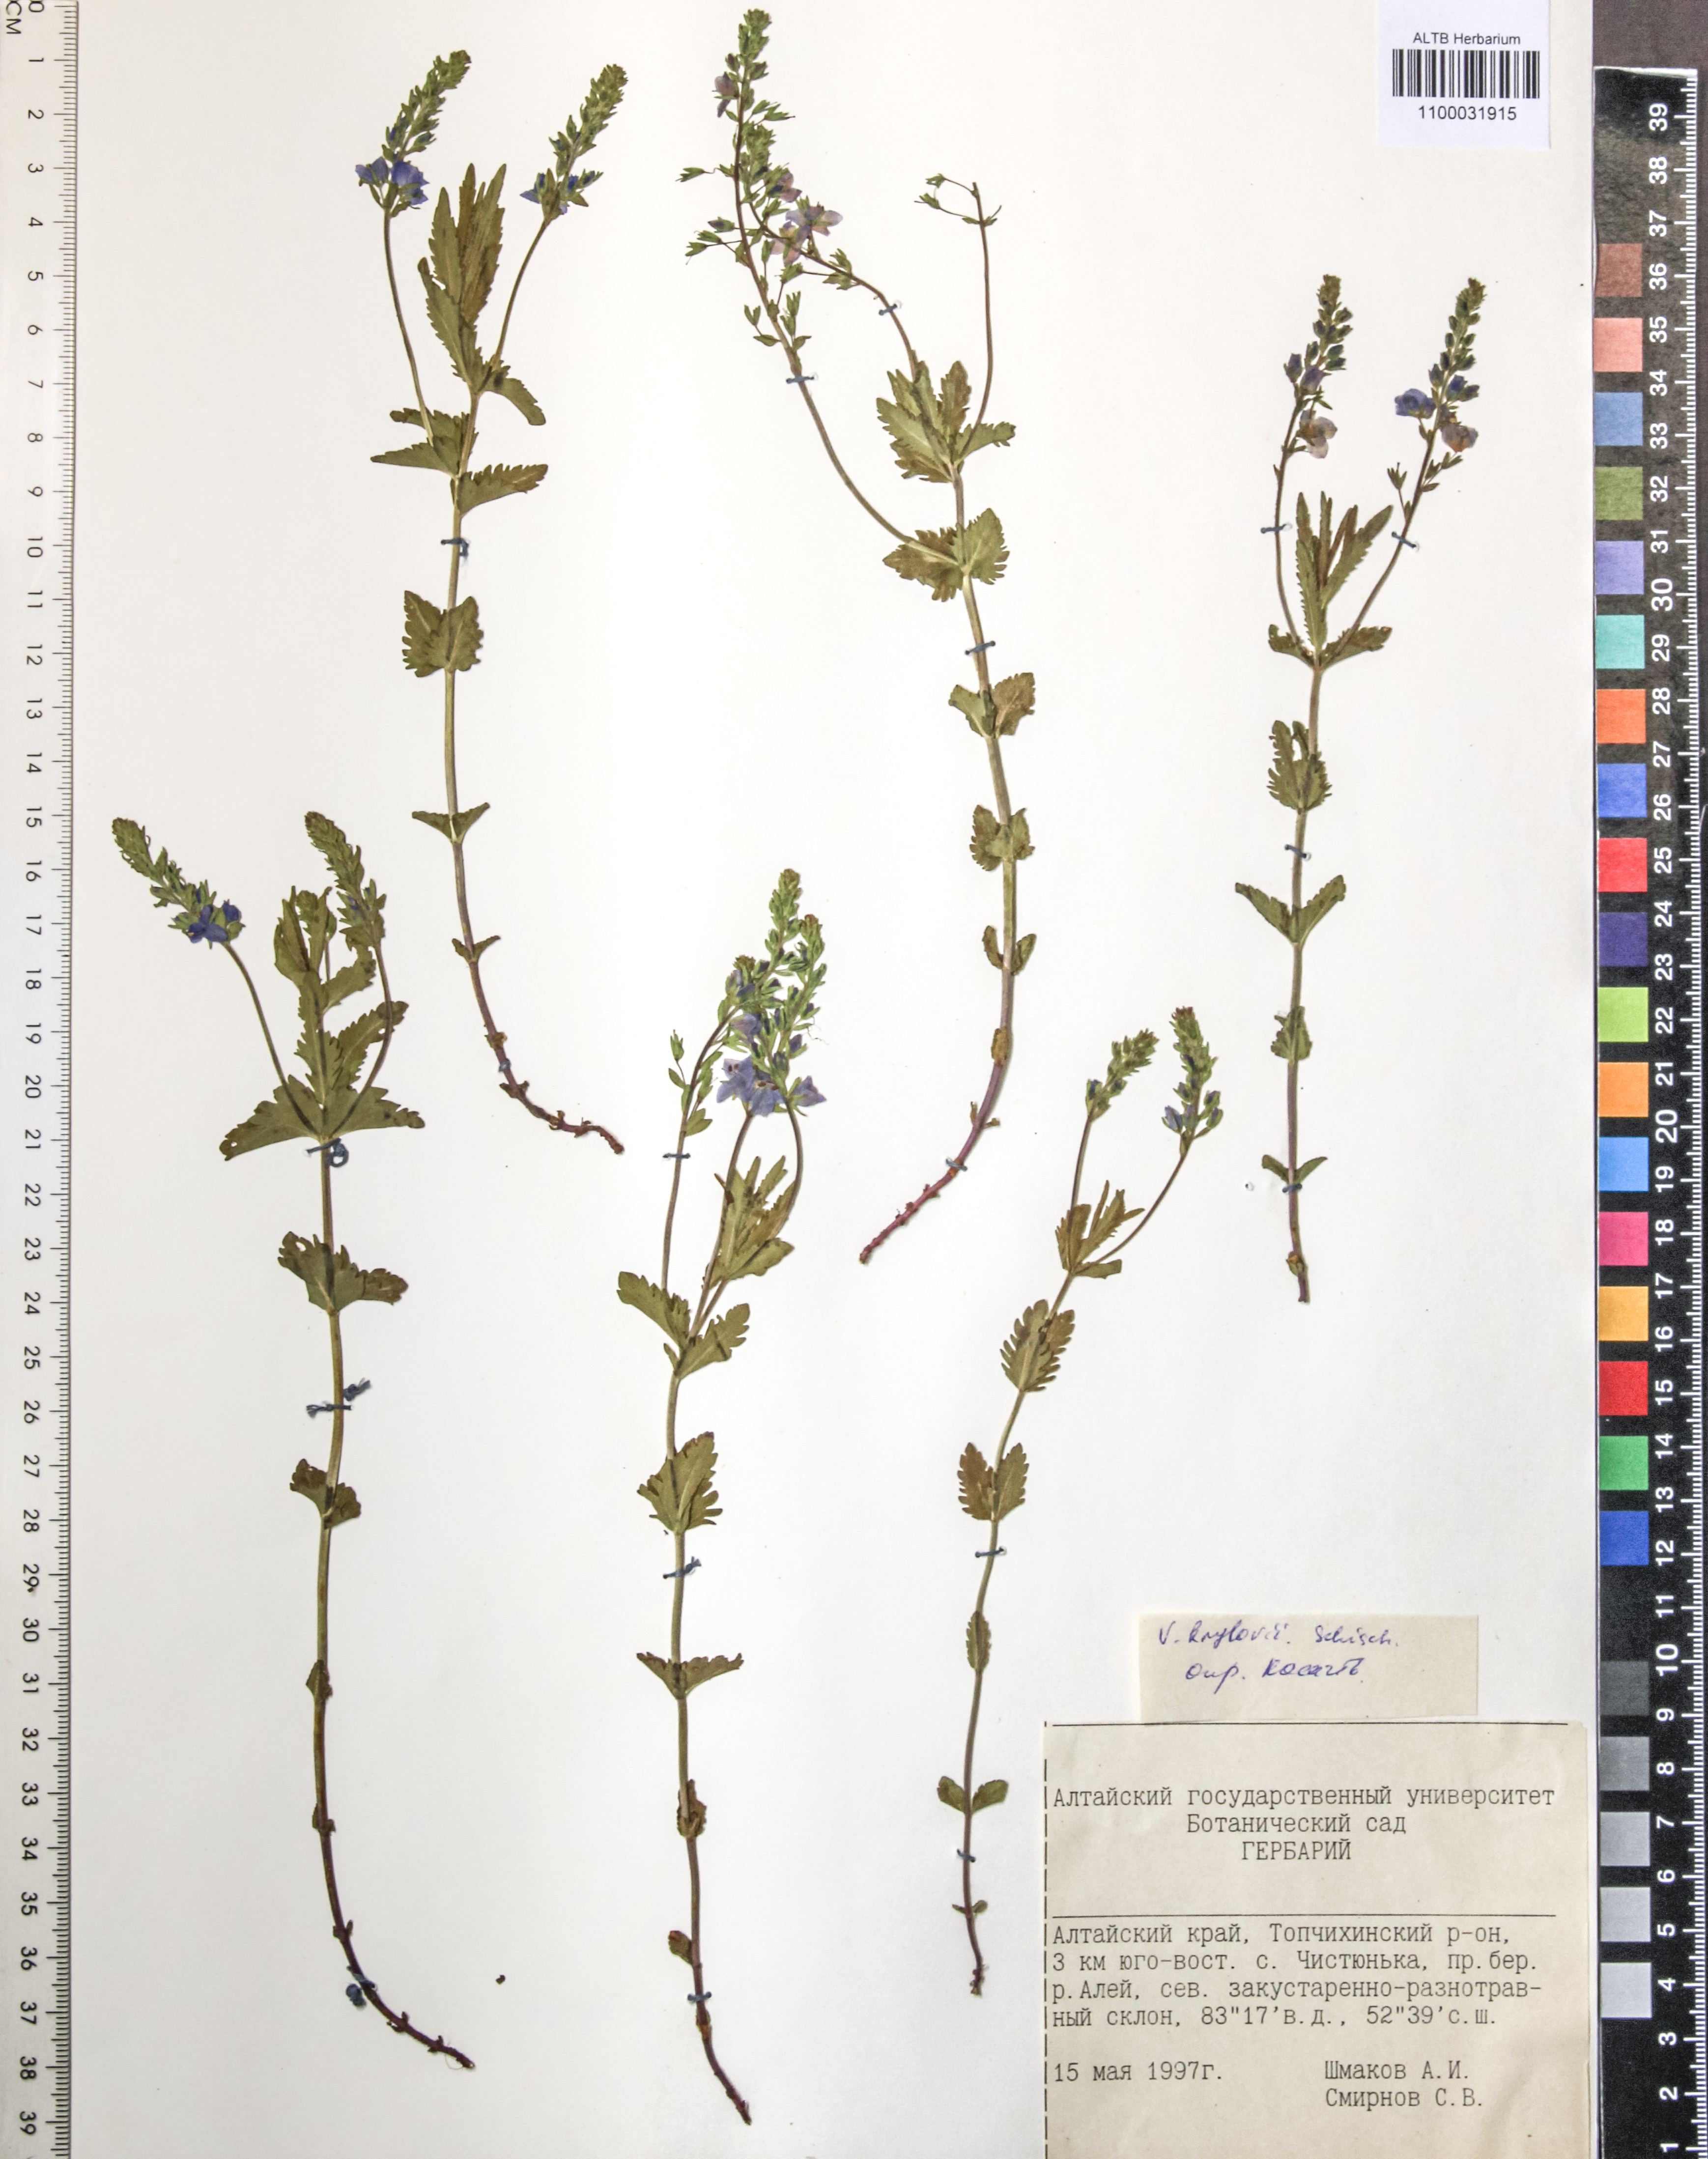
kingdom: Plantae
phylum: Tracheophyta
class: Magnoliopsida
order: Lamiales
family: Plantaginaceae
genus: Veronica
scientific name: Veronica krylovii
